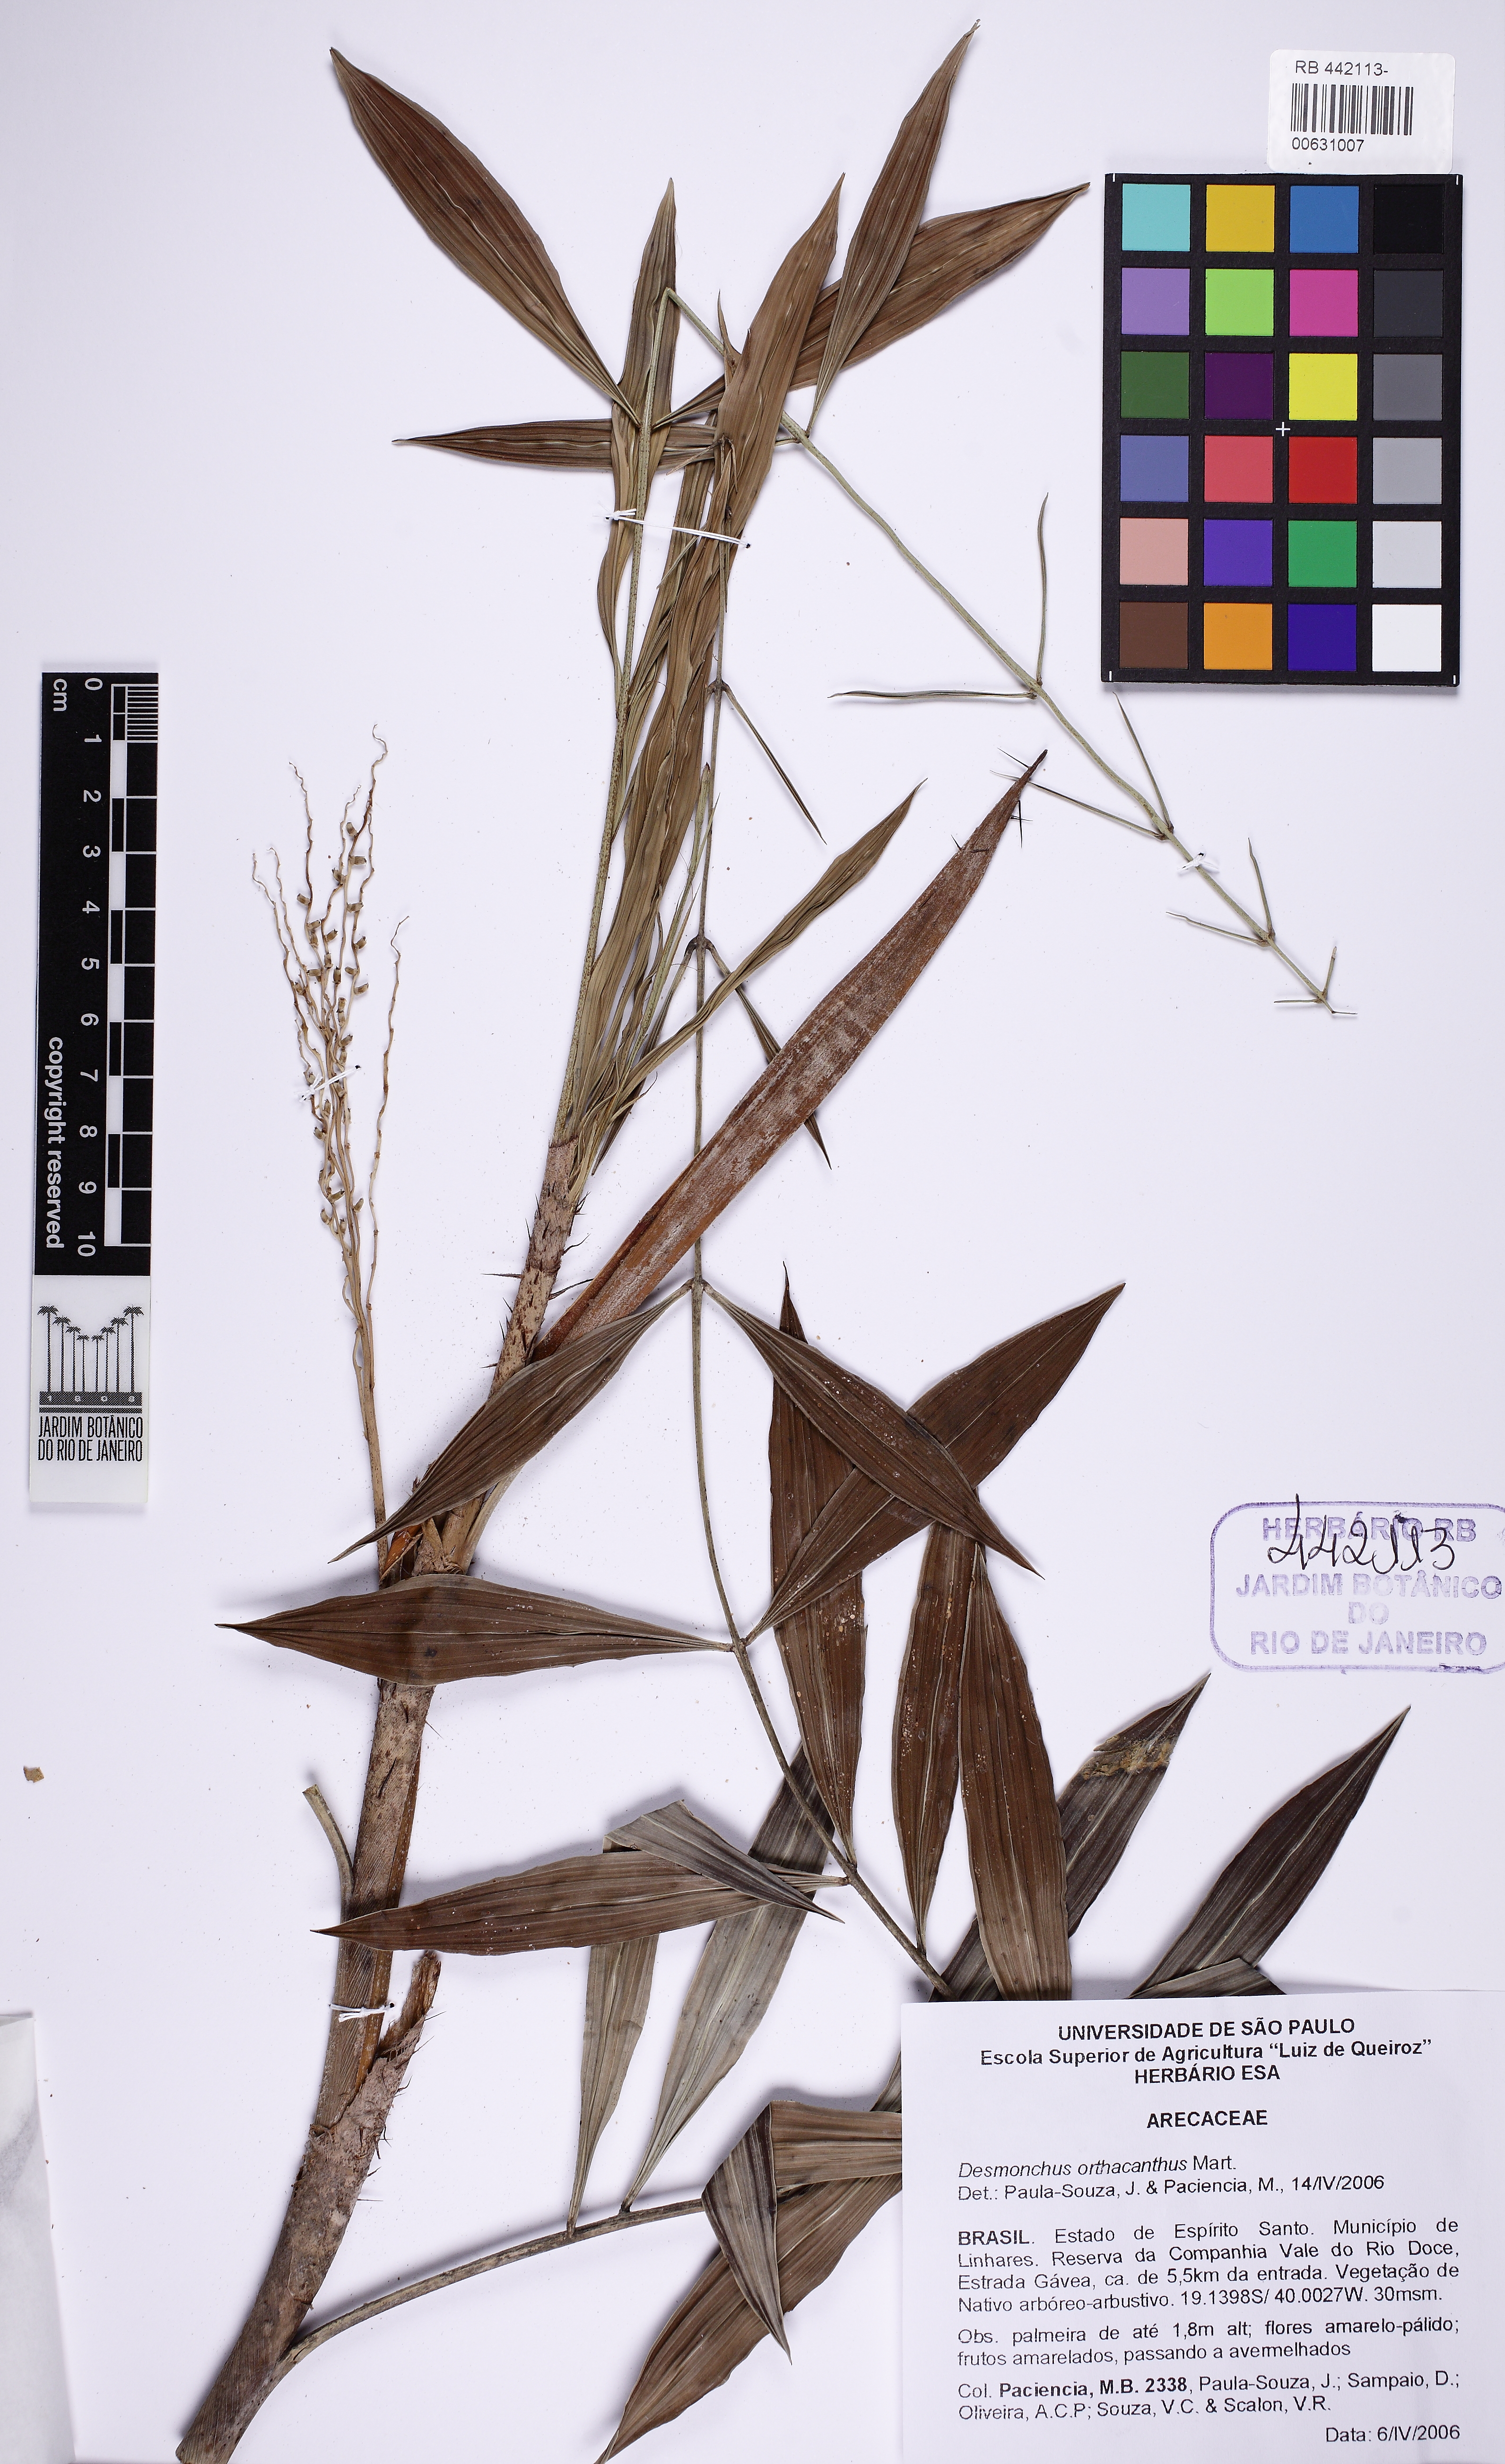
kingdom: Plantae
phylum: Tracheophyta
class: Liliopsida
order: Arecales
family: Arecaceae
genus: Desmoncus
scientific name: Desmoncus orthacanthos
